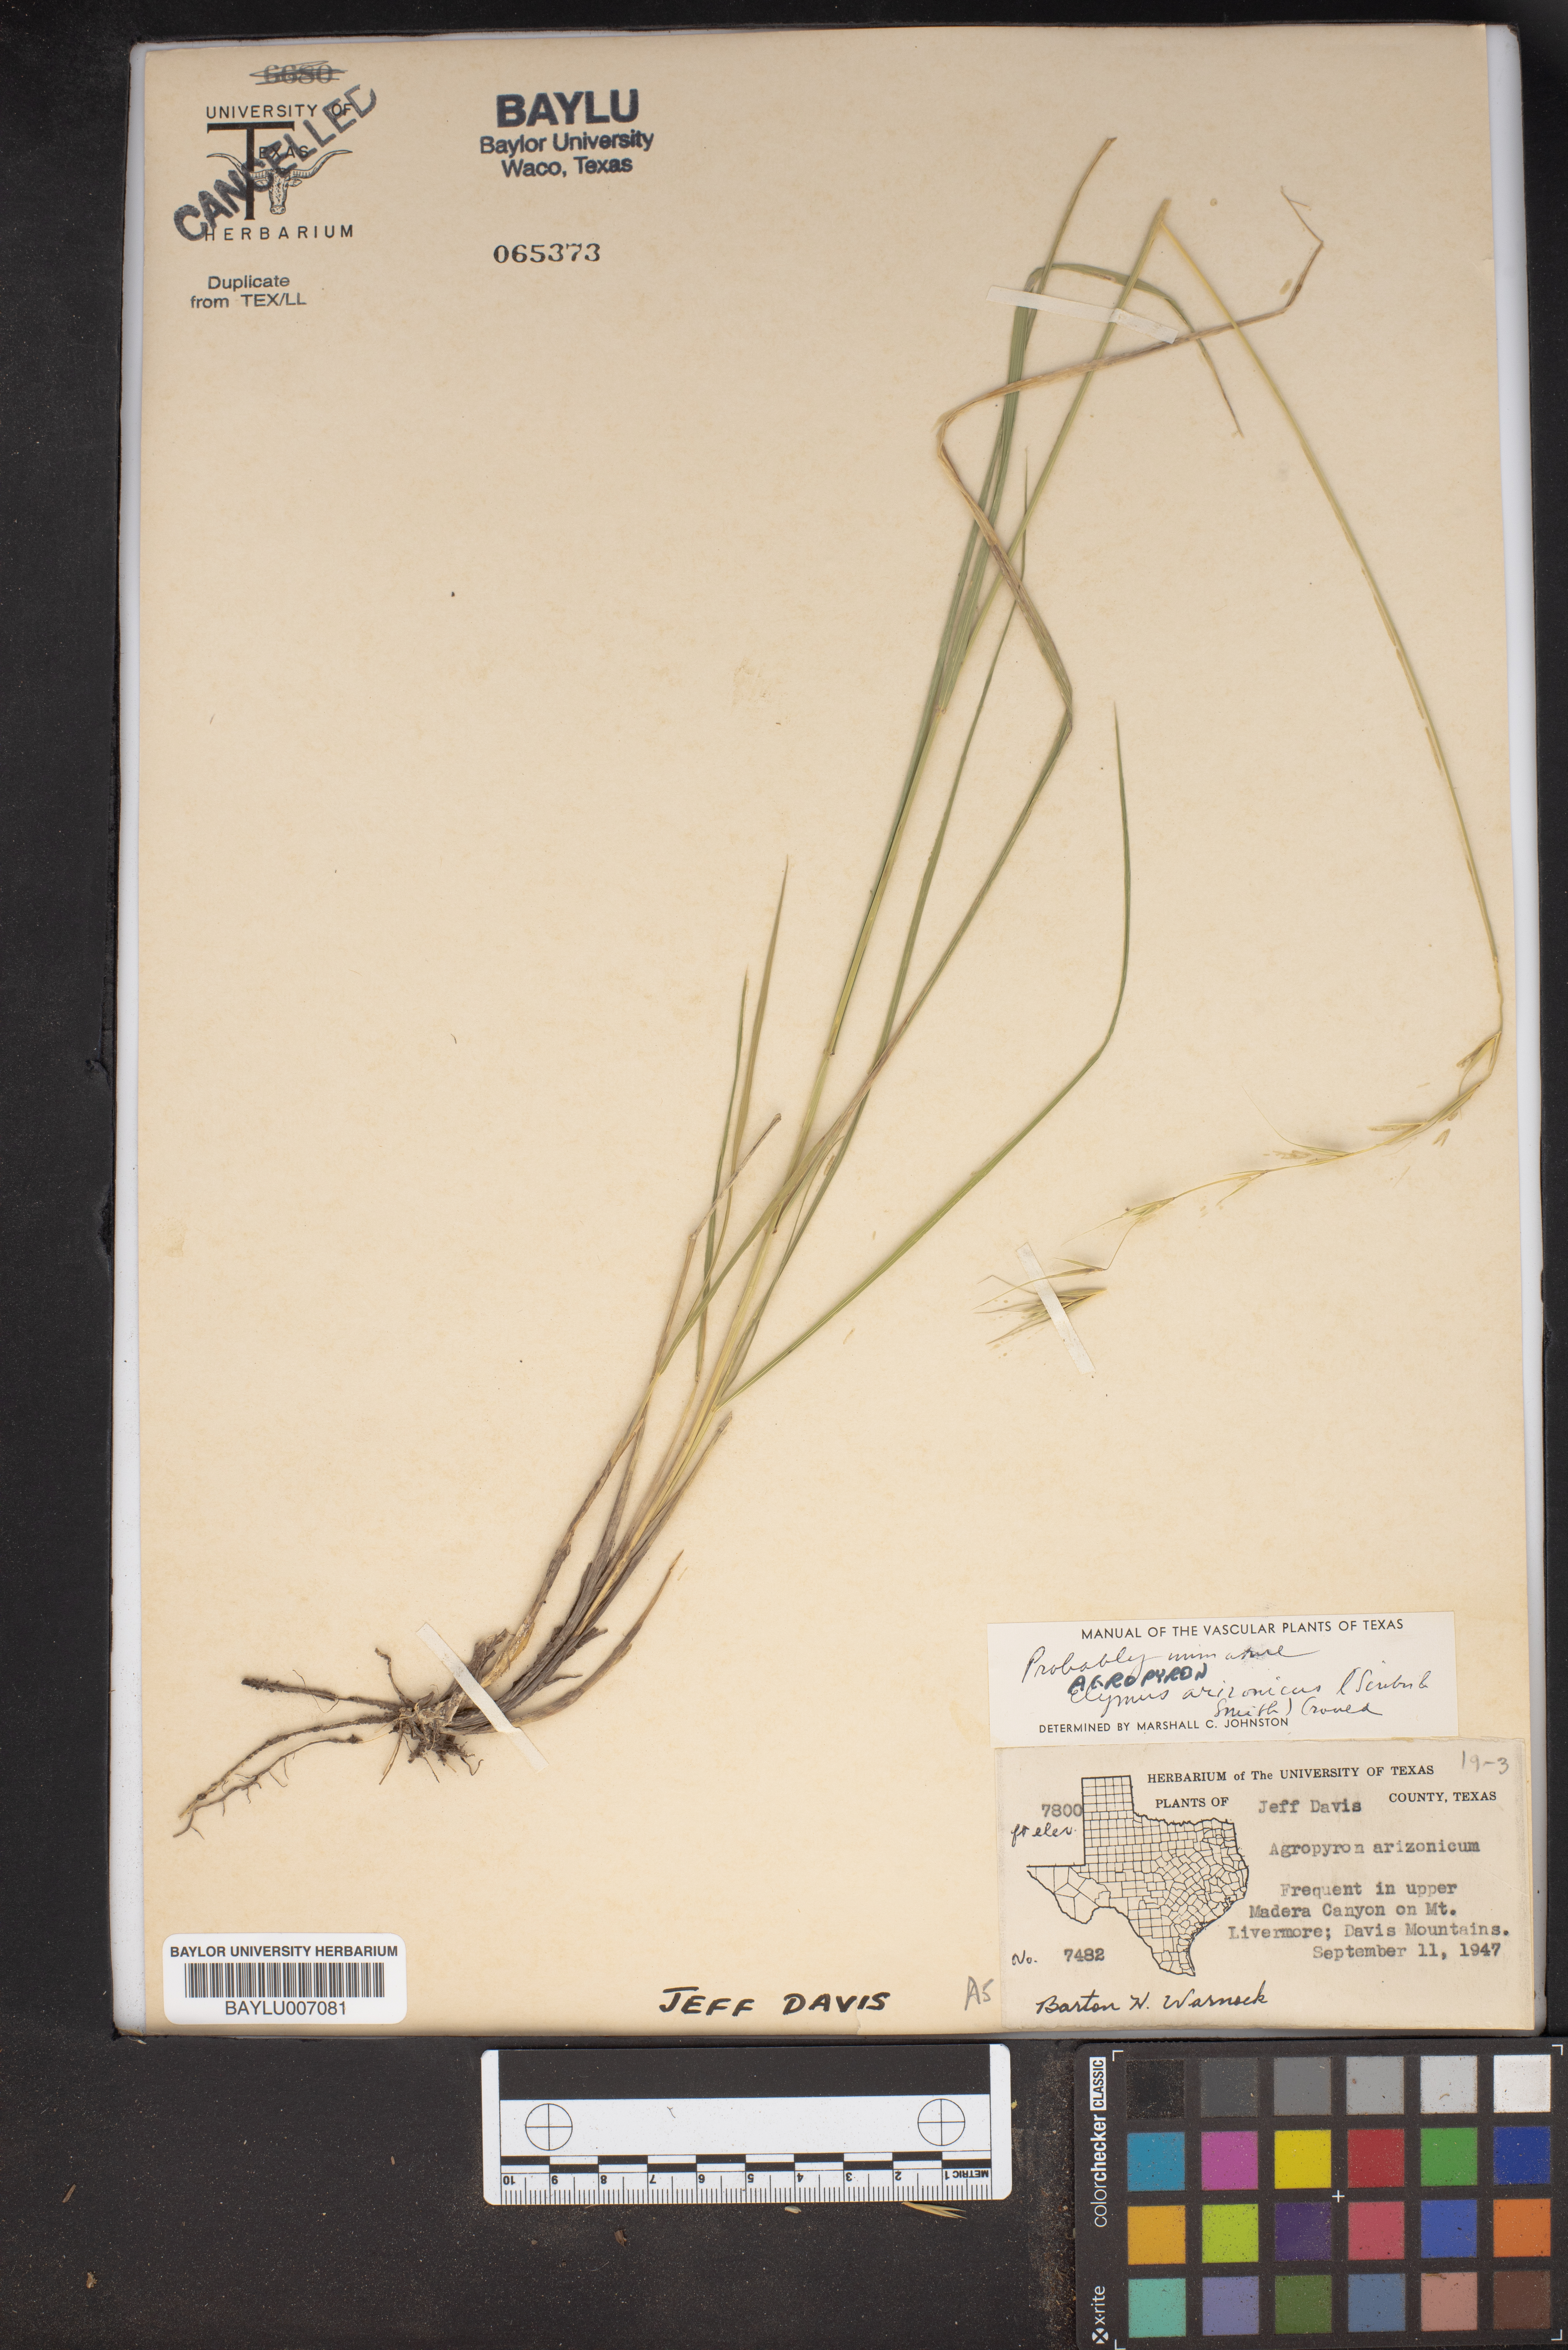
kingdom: Plantae
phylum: Tracheophyta
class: Liliopsida
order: Poales
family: Poaceae
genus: Elymus
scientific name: Elymus arizonicus
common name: Arizona wheatgrass
